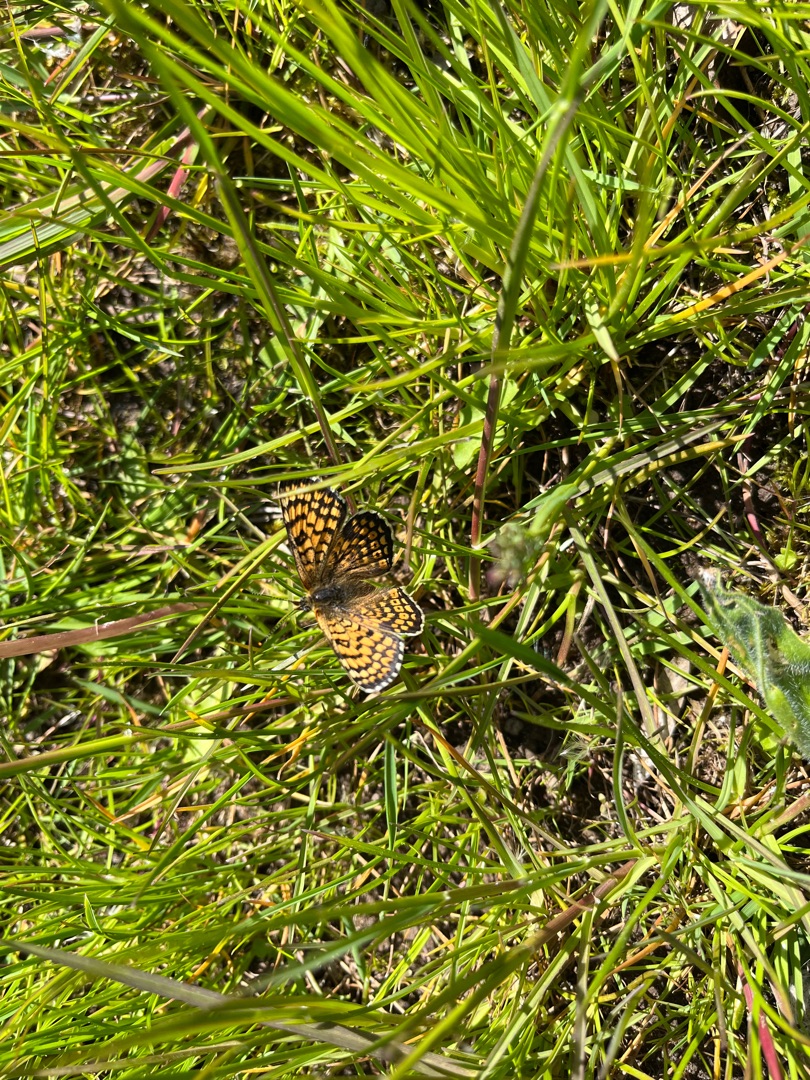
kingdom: Animalia
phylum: Arthropoda
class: Insecta
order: Lepidoptera
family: Nymphalidae
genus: Melitaea
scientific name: Melitaea cinxia
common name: Okkergul pletvinge
